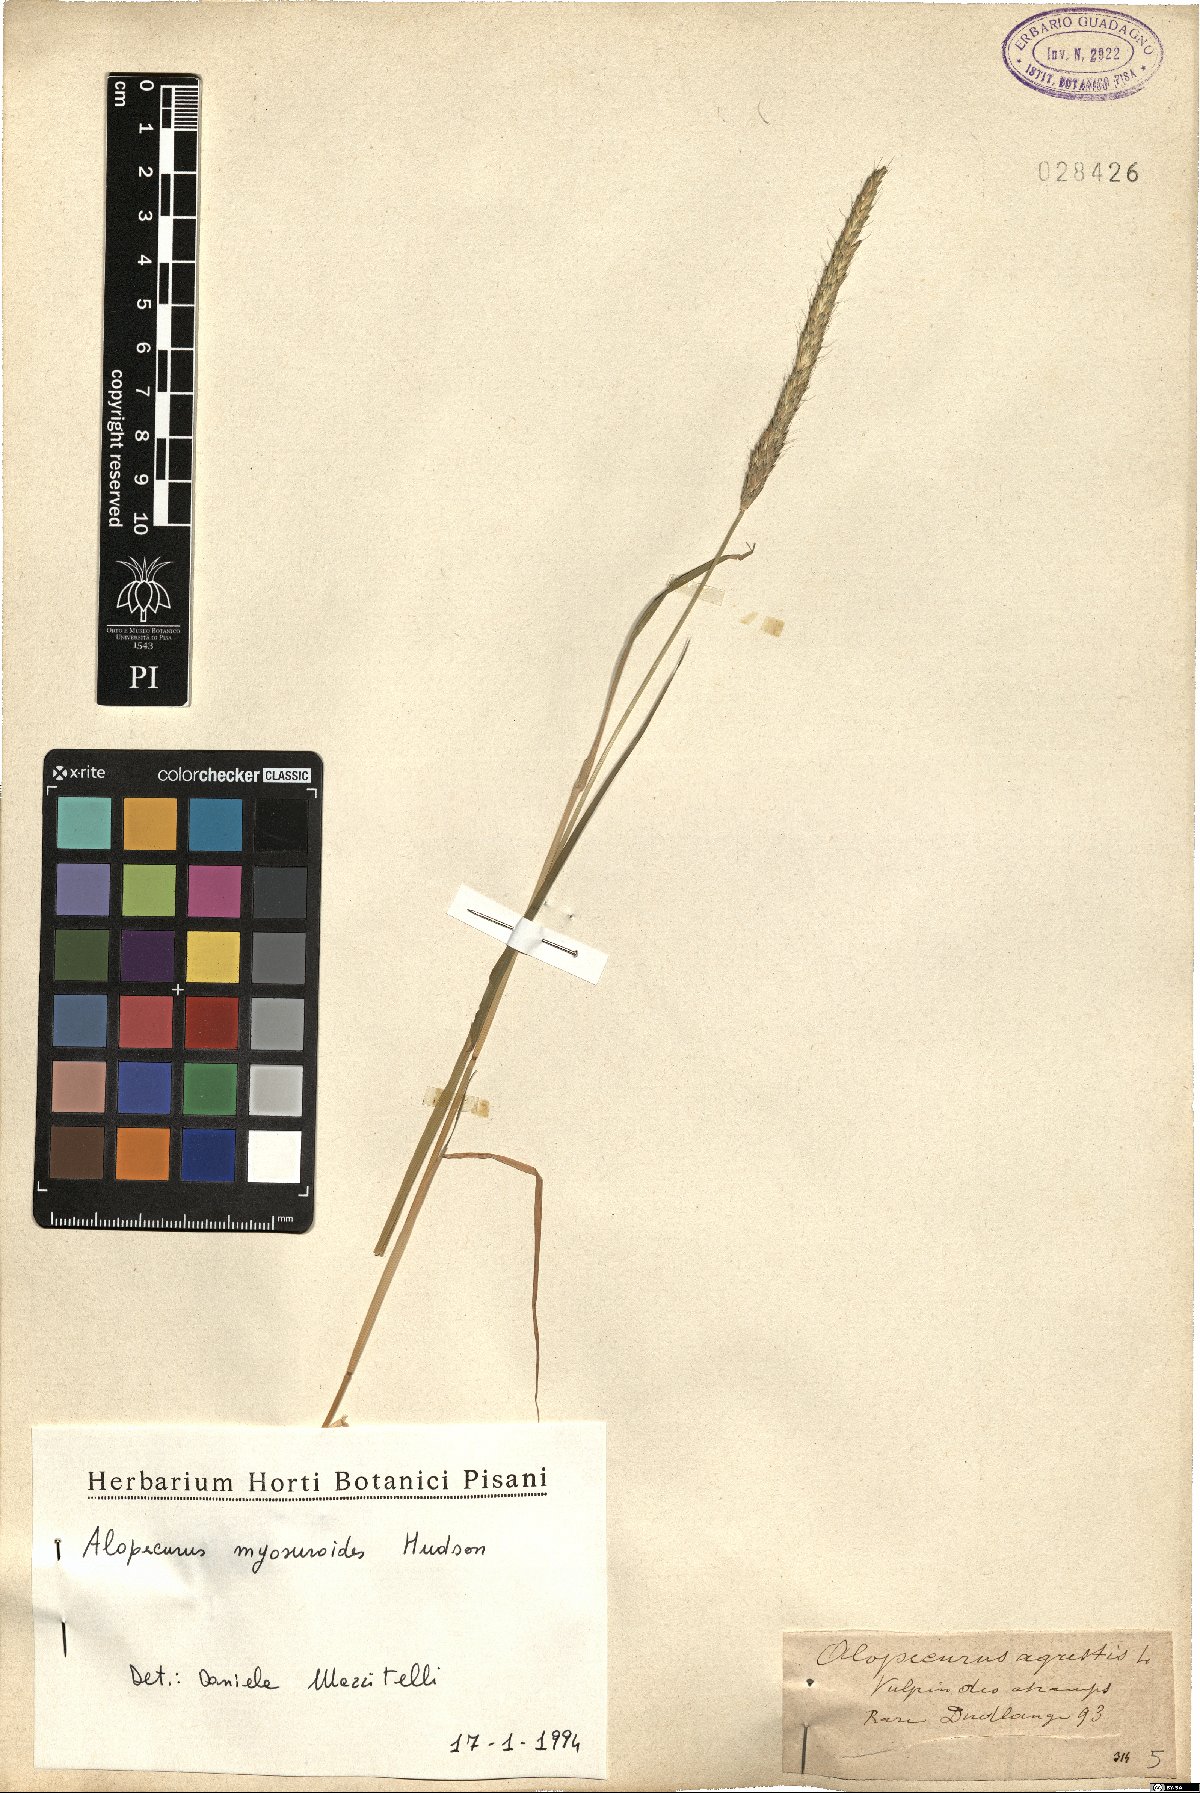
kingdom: Plantae
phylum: Tracheophyta
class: Liliopsida
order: Poales
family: Poaceae
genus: Alopecurus
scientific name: Alopecurus myosuroides
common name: Black-grass
